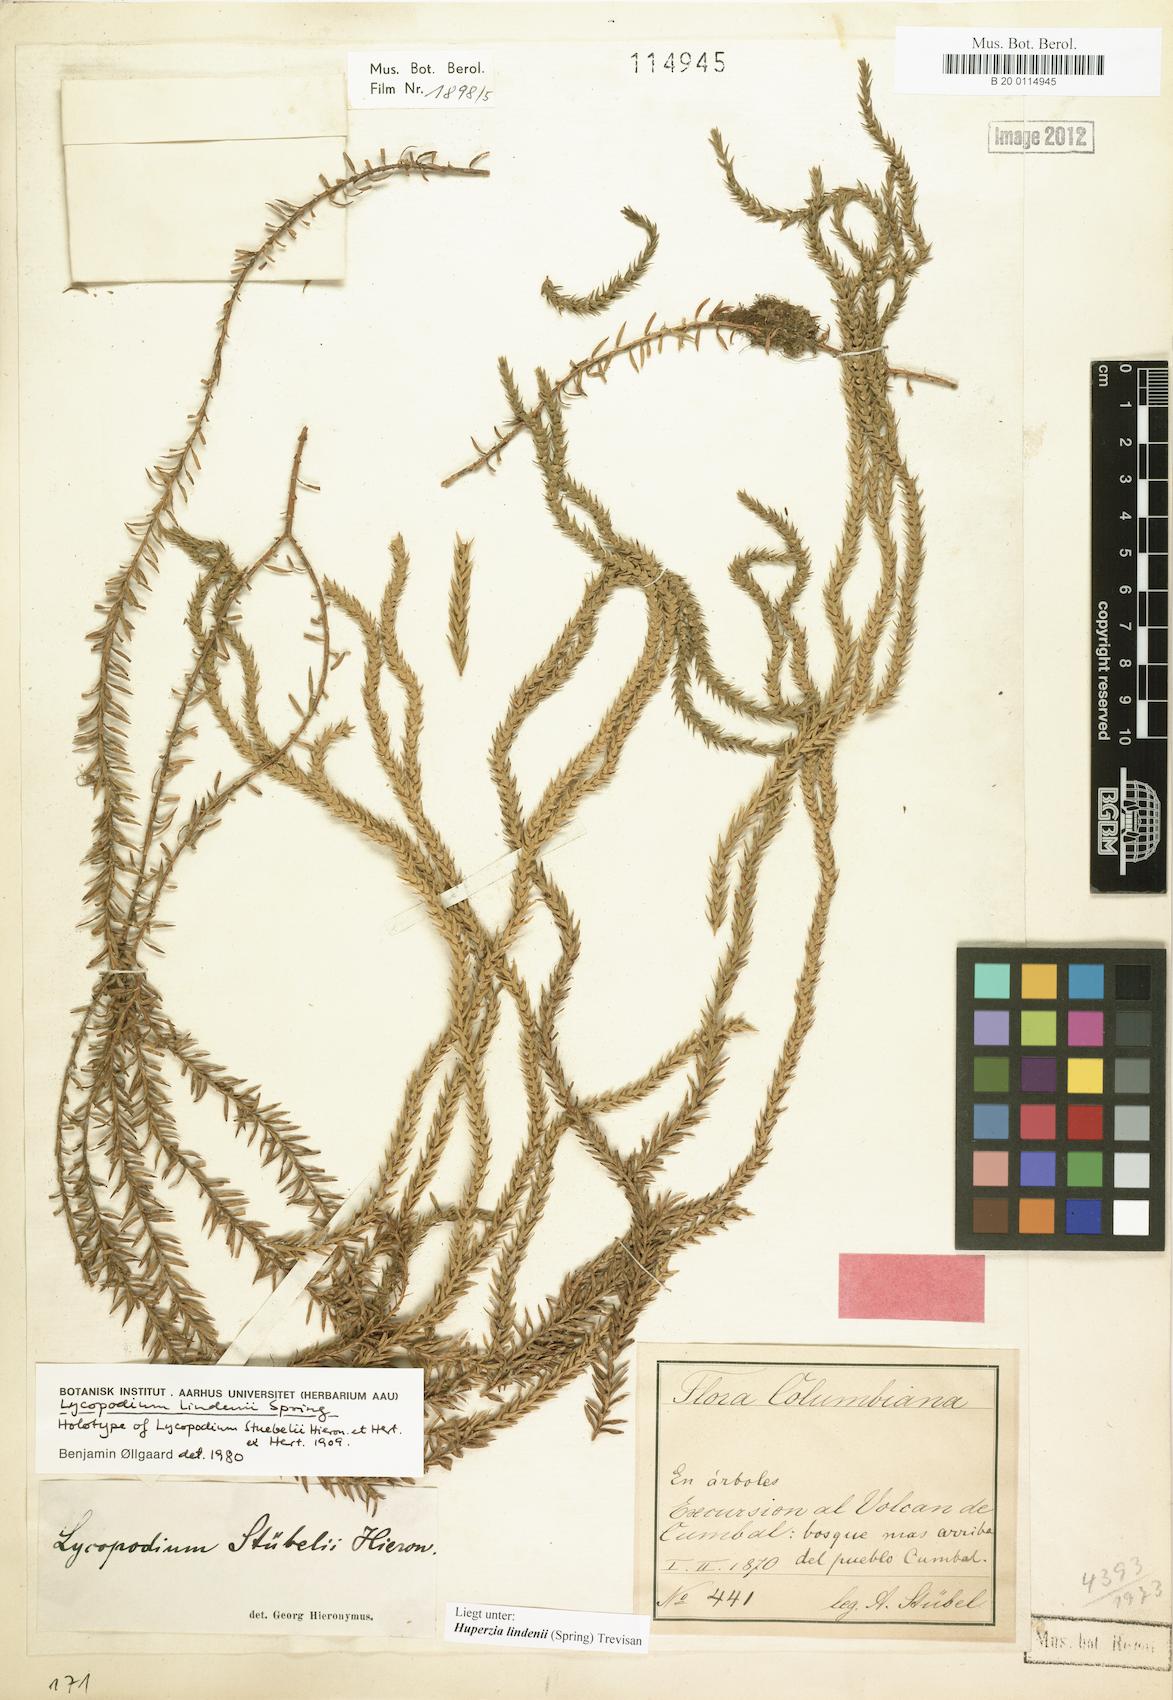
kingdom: Plantae
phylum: Tracheophyta
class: Lycopodiopsida
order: Lycopodiales
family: Lycopodiaceae
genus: Phlegmariurus
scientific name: Phlegmariurus lindenii
